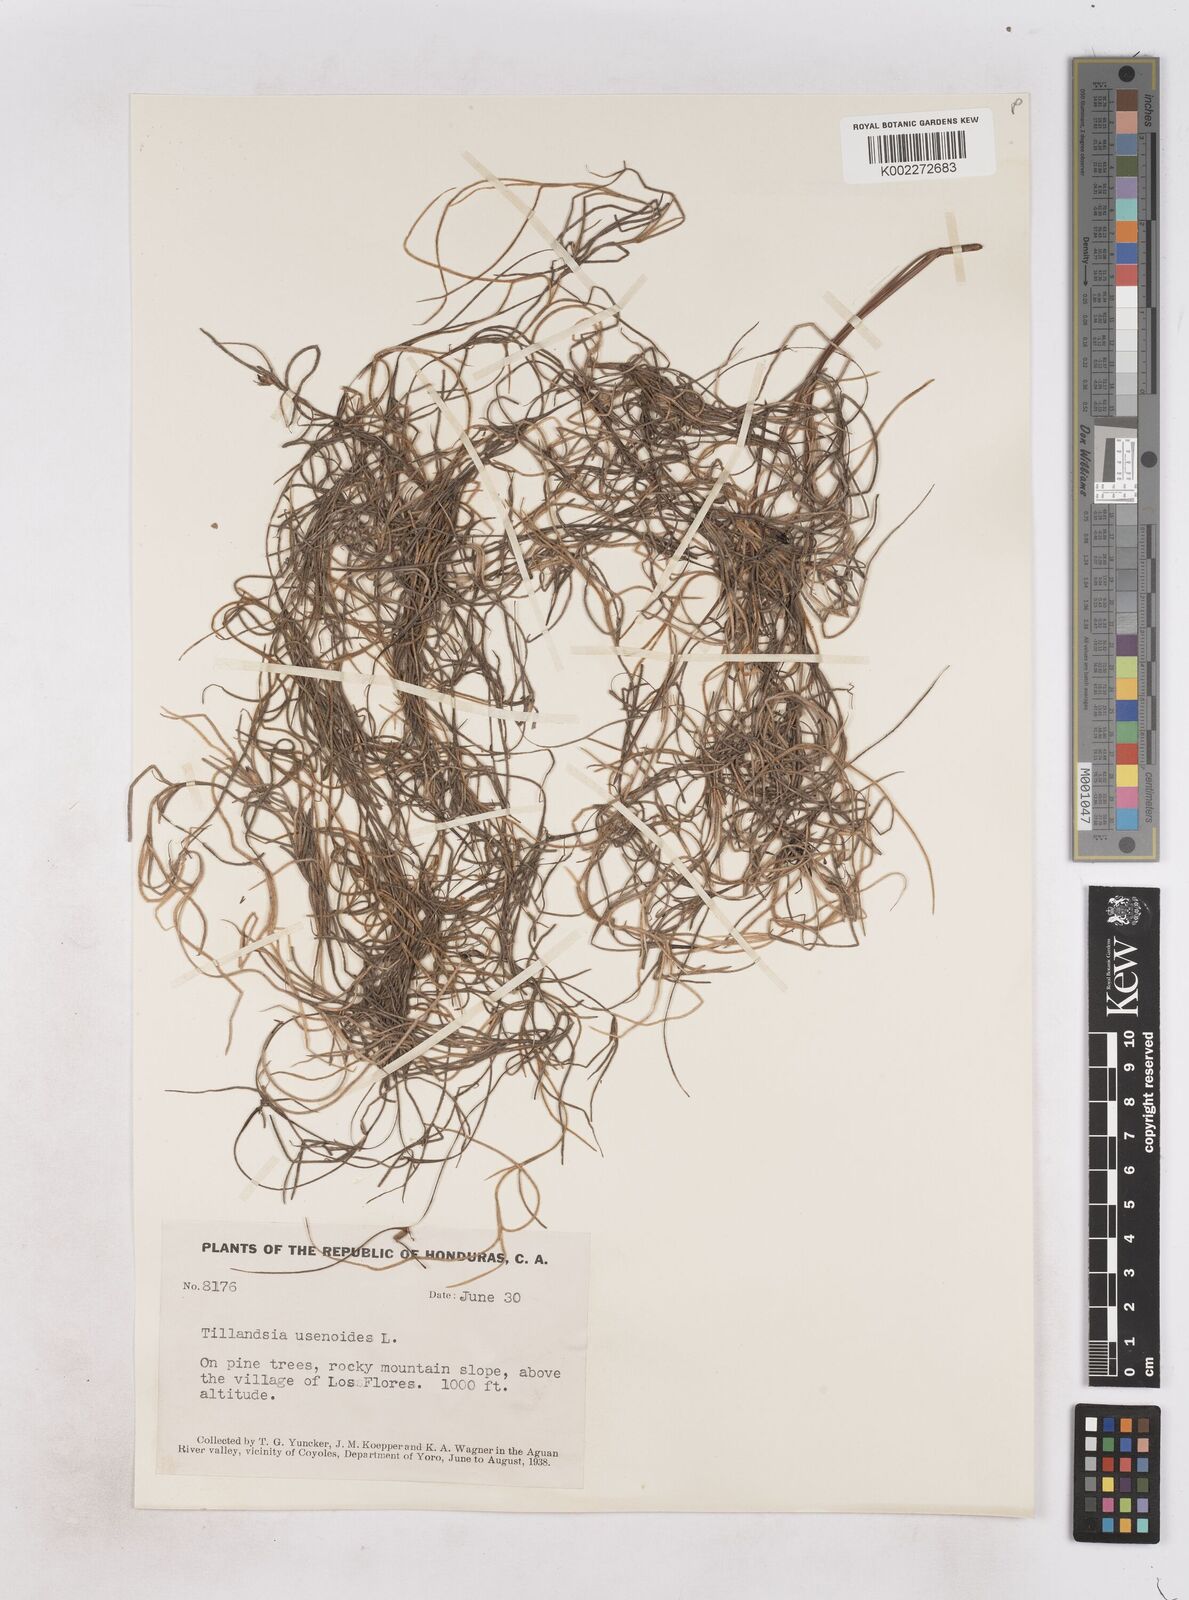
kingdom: Plantae
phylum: Tracheophyta
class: Liliopsida
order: Poales
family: Bromeliaceae
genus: Tillandsia
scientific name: Tillandsia usneoides
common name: Spanish moss
